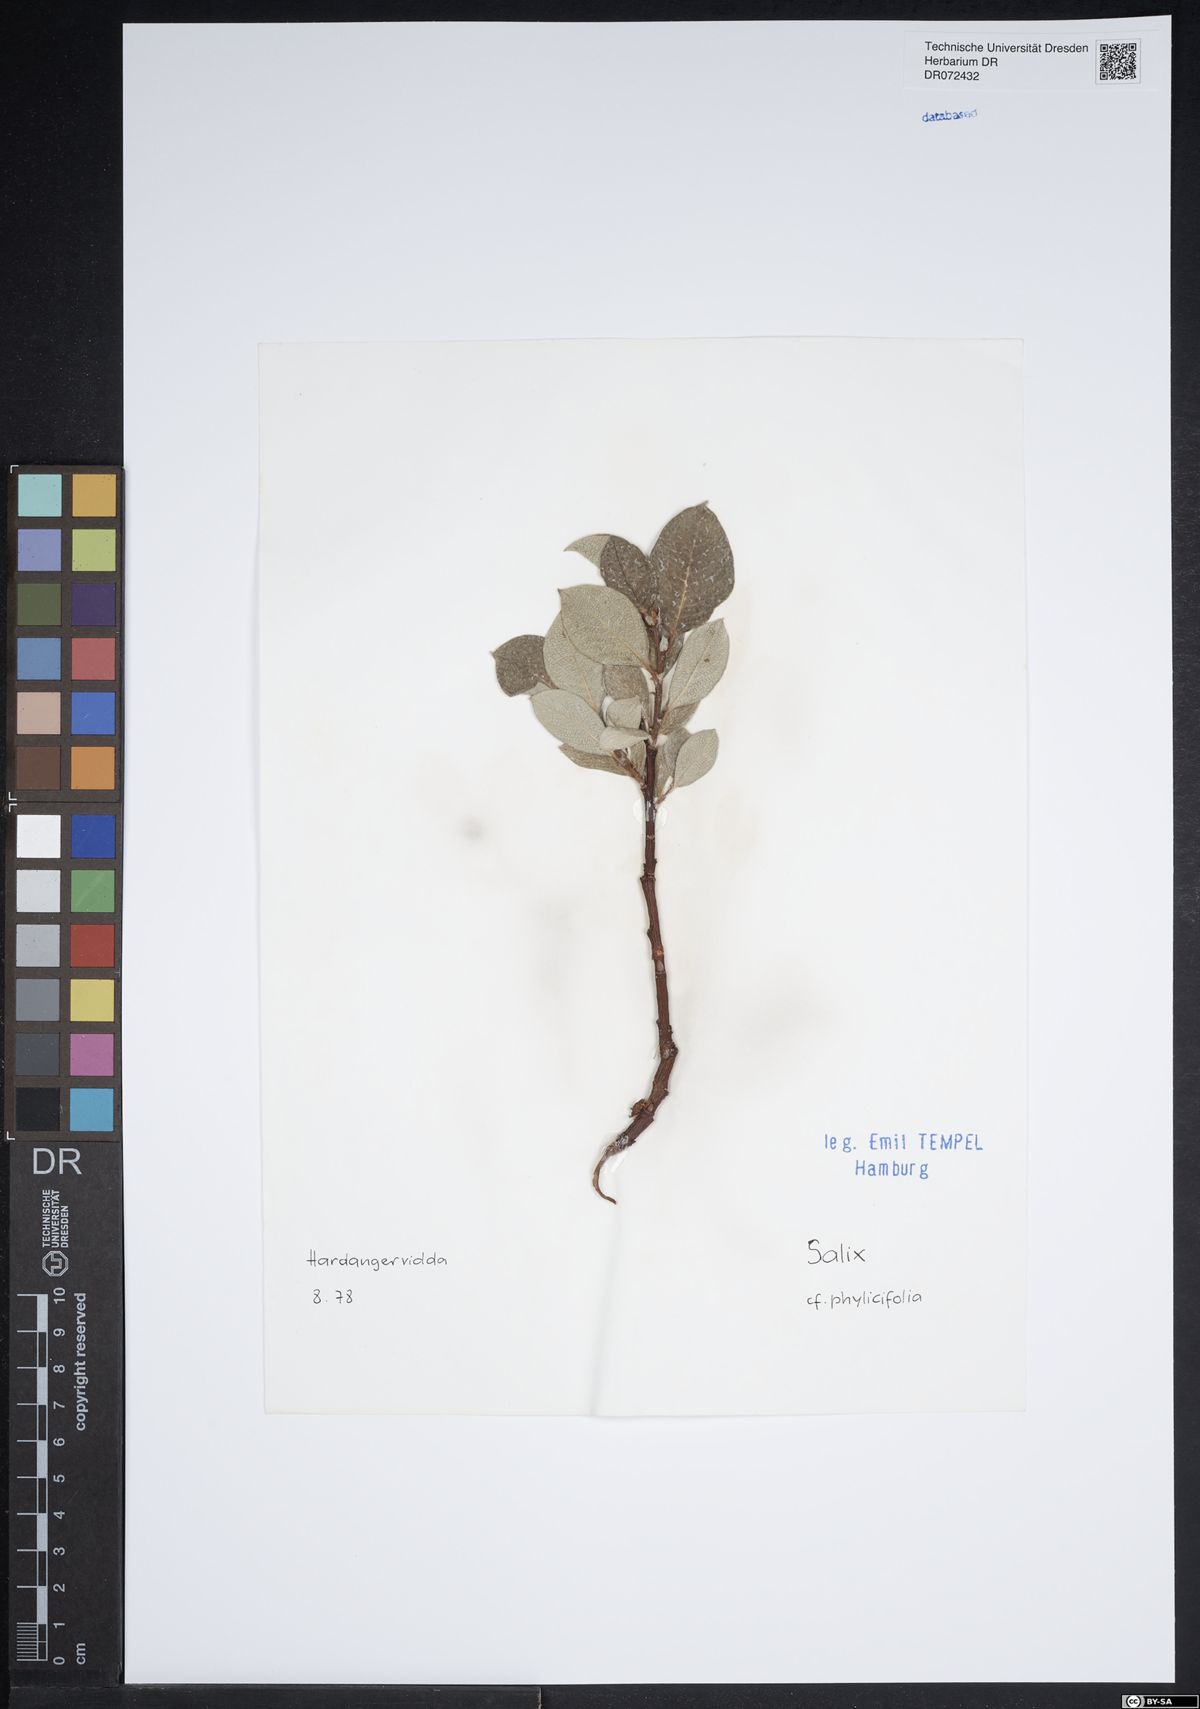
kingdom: Plantae
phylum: Tracheophyta
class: Magnoliopsida
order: Malpighiales
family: Salicaceae
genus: Salix
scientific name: Salix phylicifolia
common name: Tea-leaved willow
